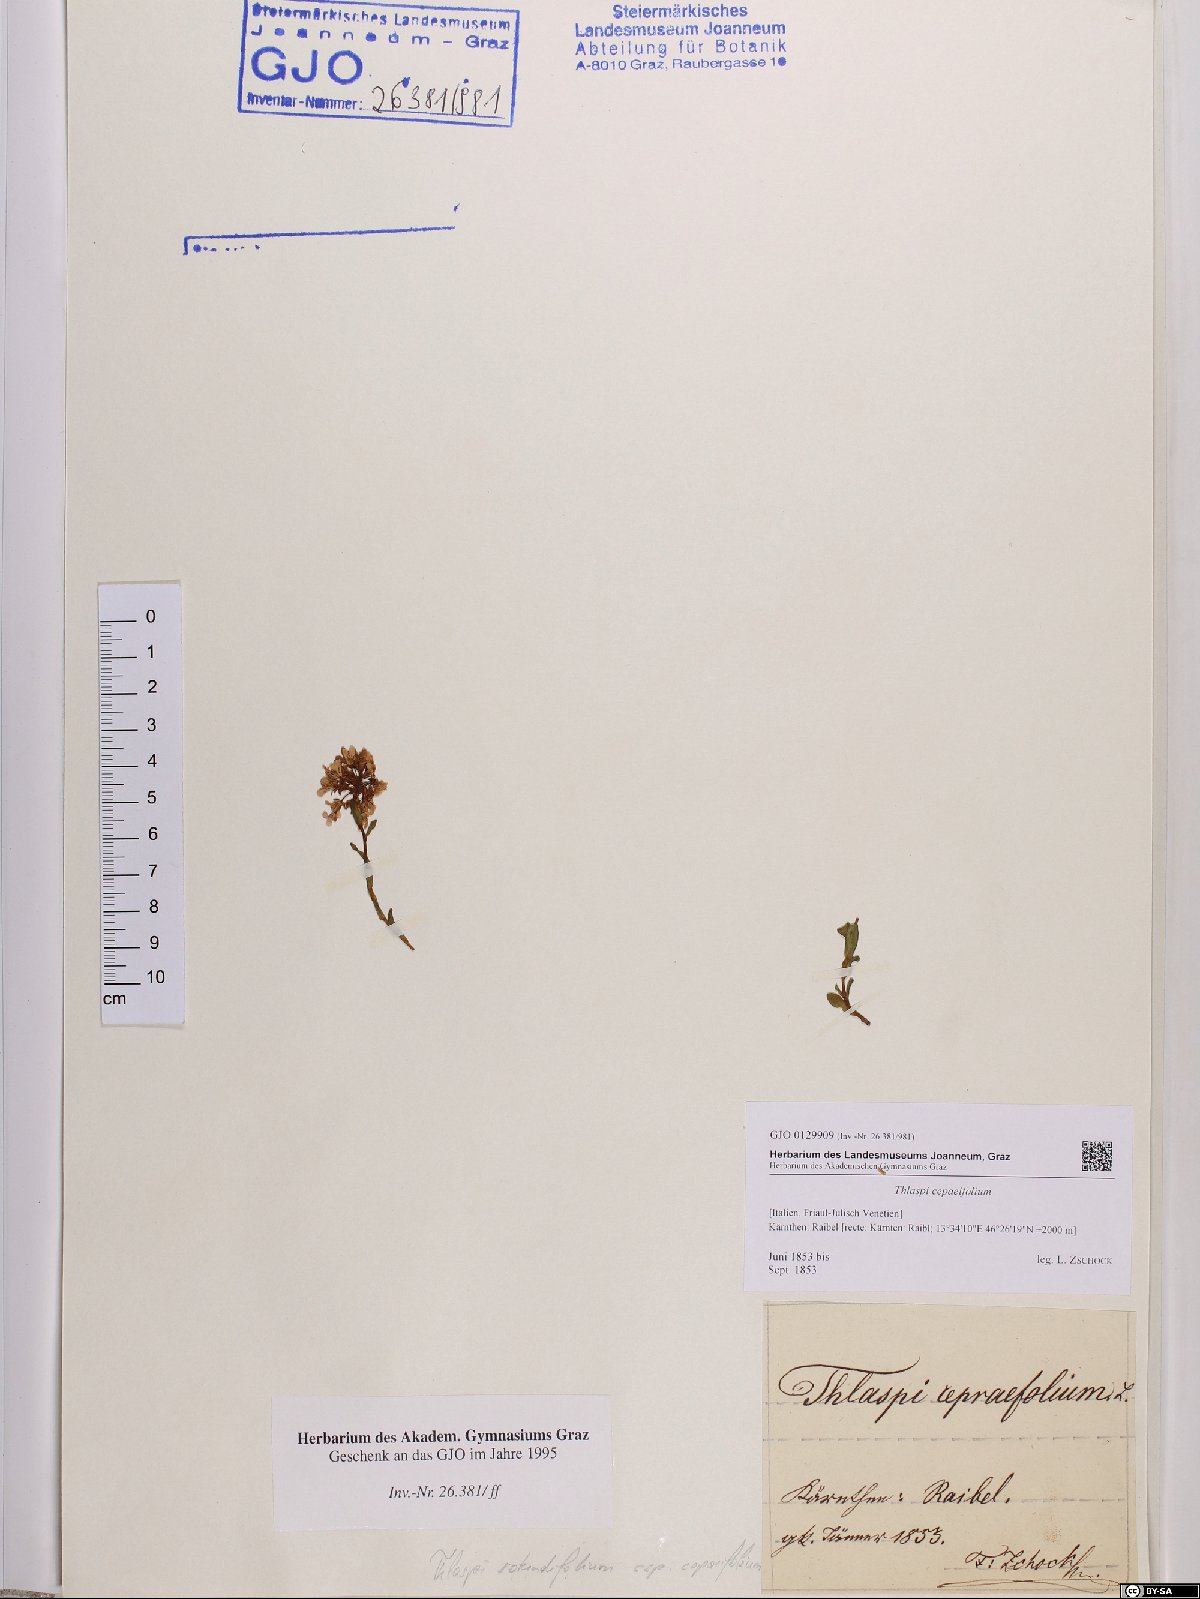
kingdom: Plantae
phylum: Tracheophyta
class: Magnoliopsida
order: Brassicales
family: Brassicaceae
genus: Noccaea
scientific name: Noccaea cepaeifolia
